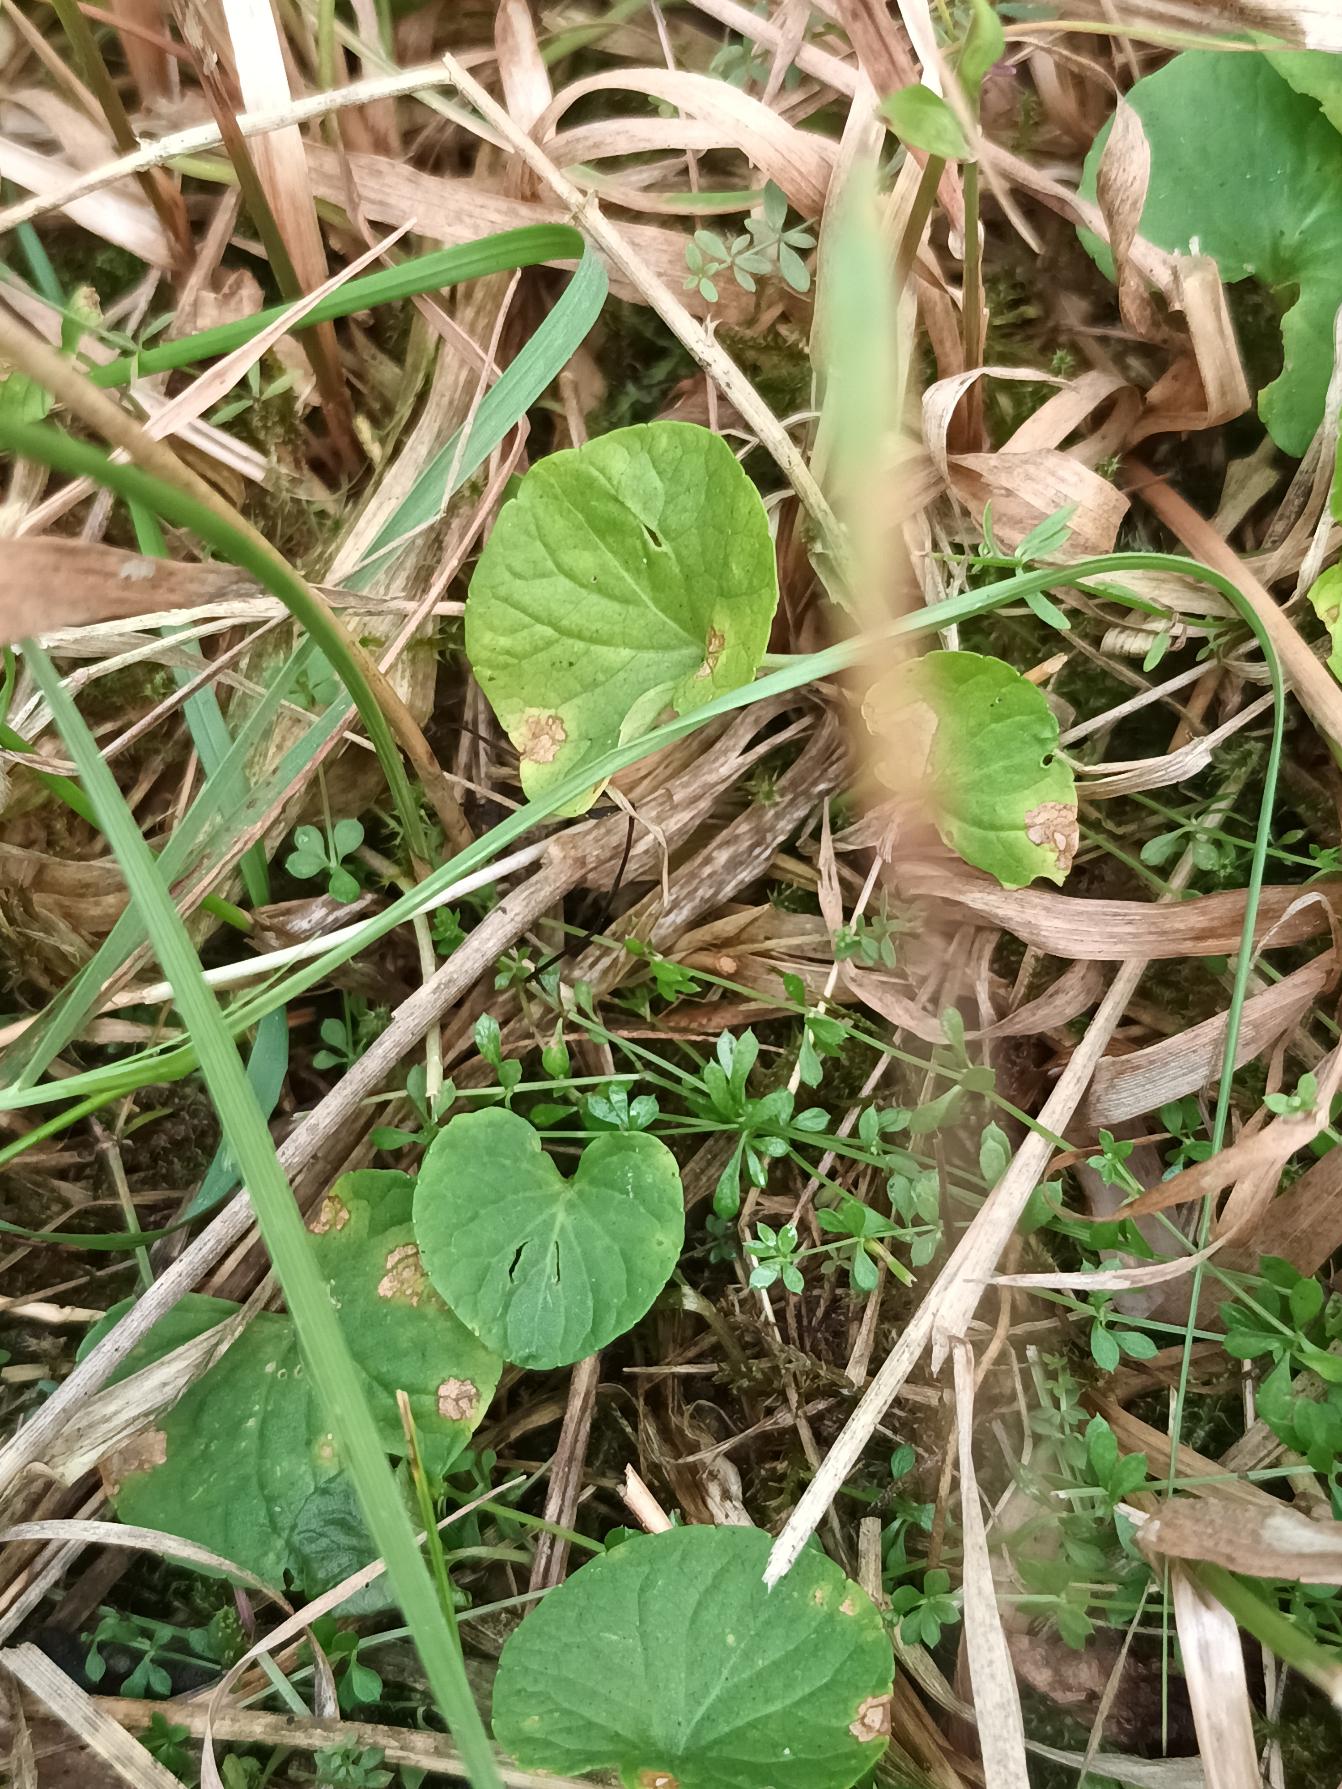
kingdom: Plantae
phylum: Tracheophyta
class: Magnoliopsida
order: Malpighiales
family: Violaceae
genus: Viola
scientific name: Viola palustris
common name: Eng-viol
